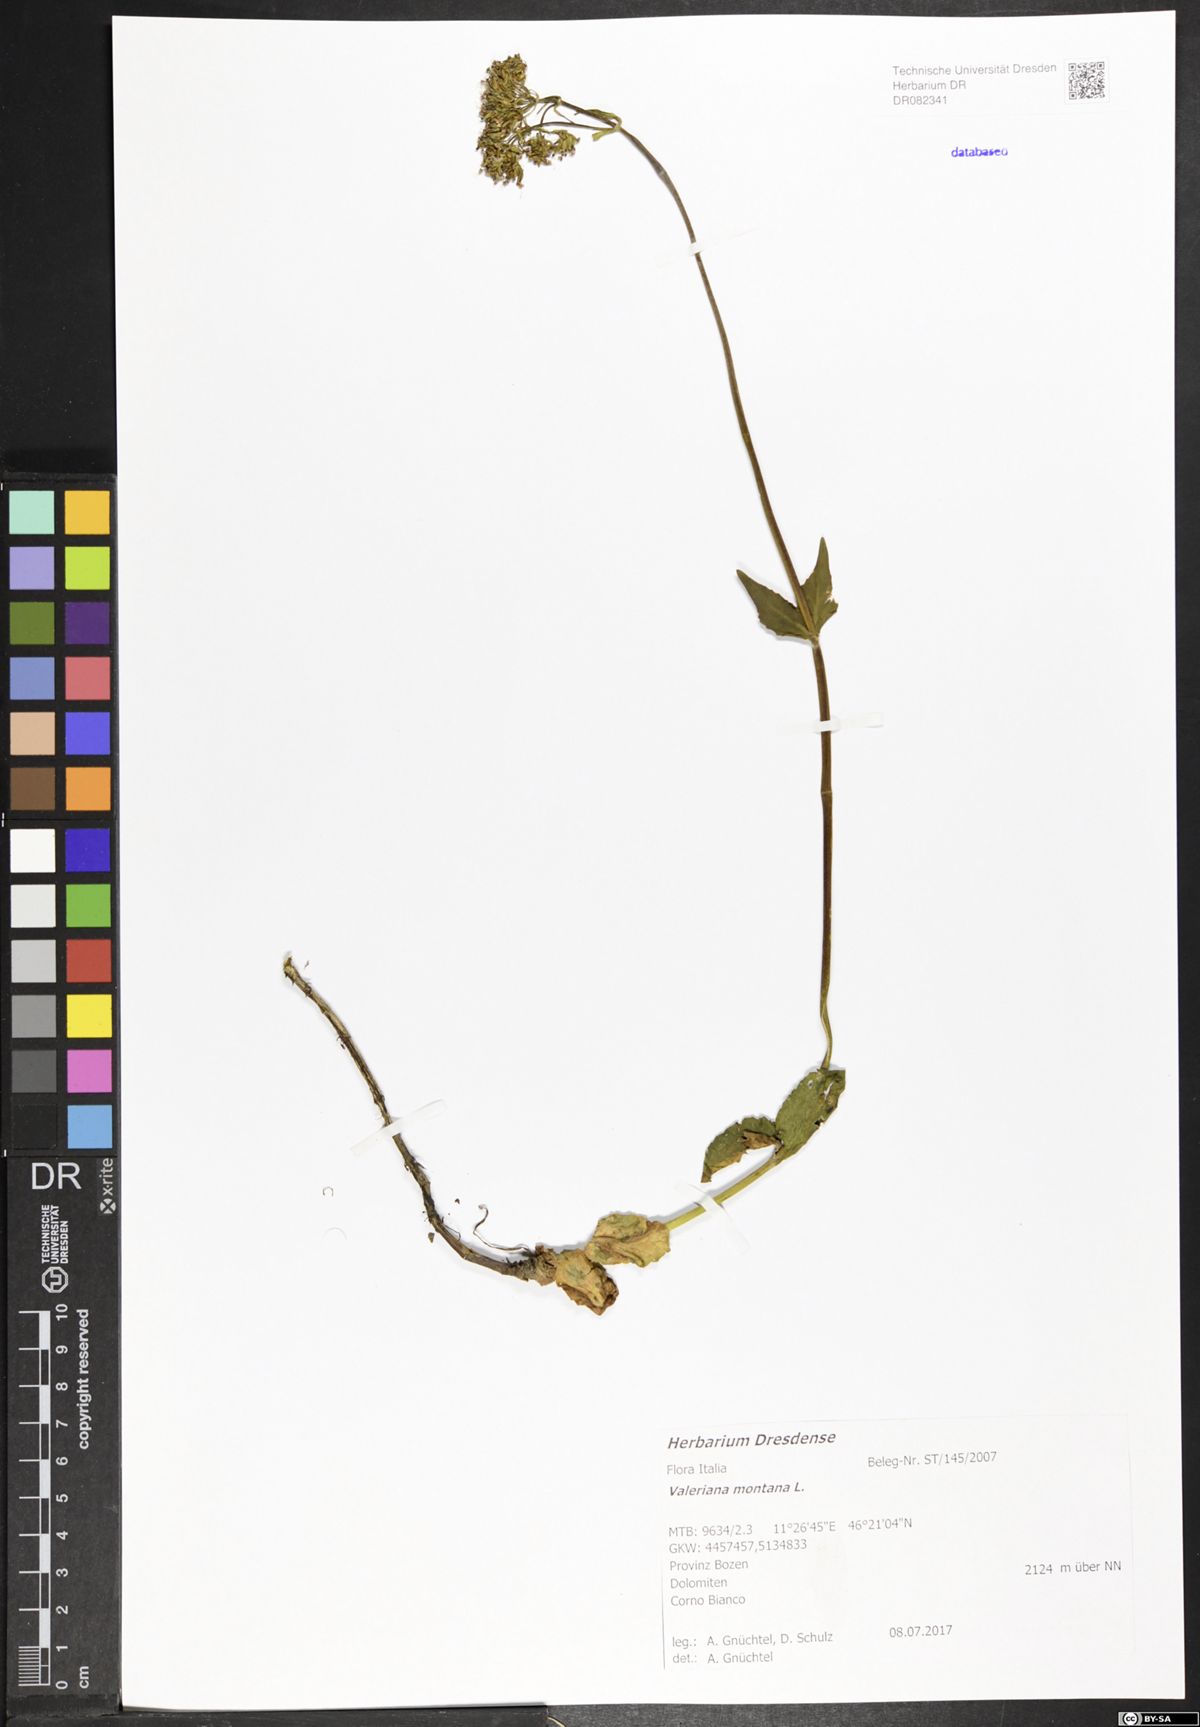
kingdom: Plantae
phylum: Tracheophyta
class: Magnoliopsida
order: Dipsacales
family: Caprifoliaceae
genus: Valeriana
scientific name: Valeriana montana
